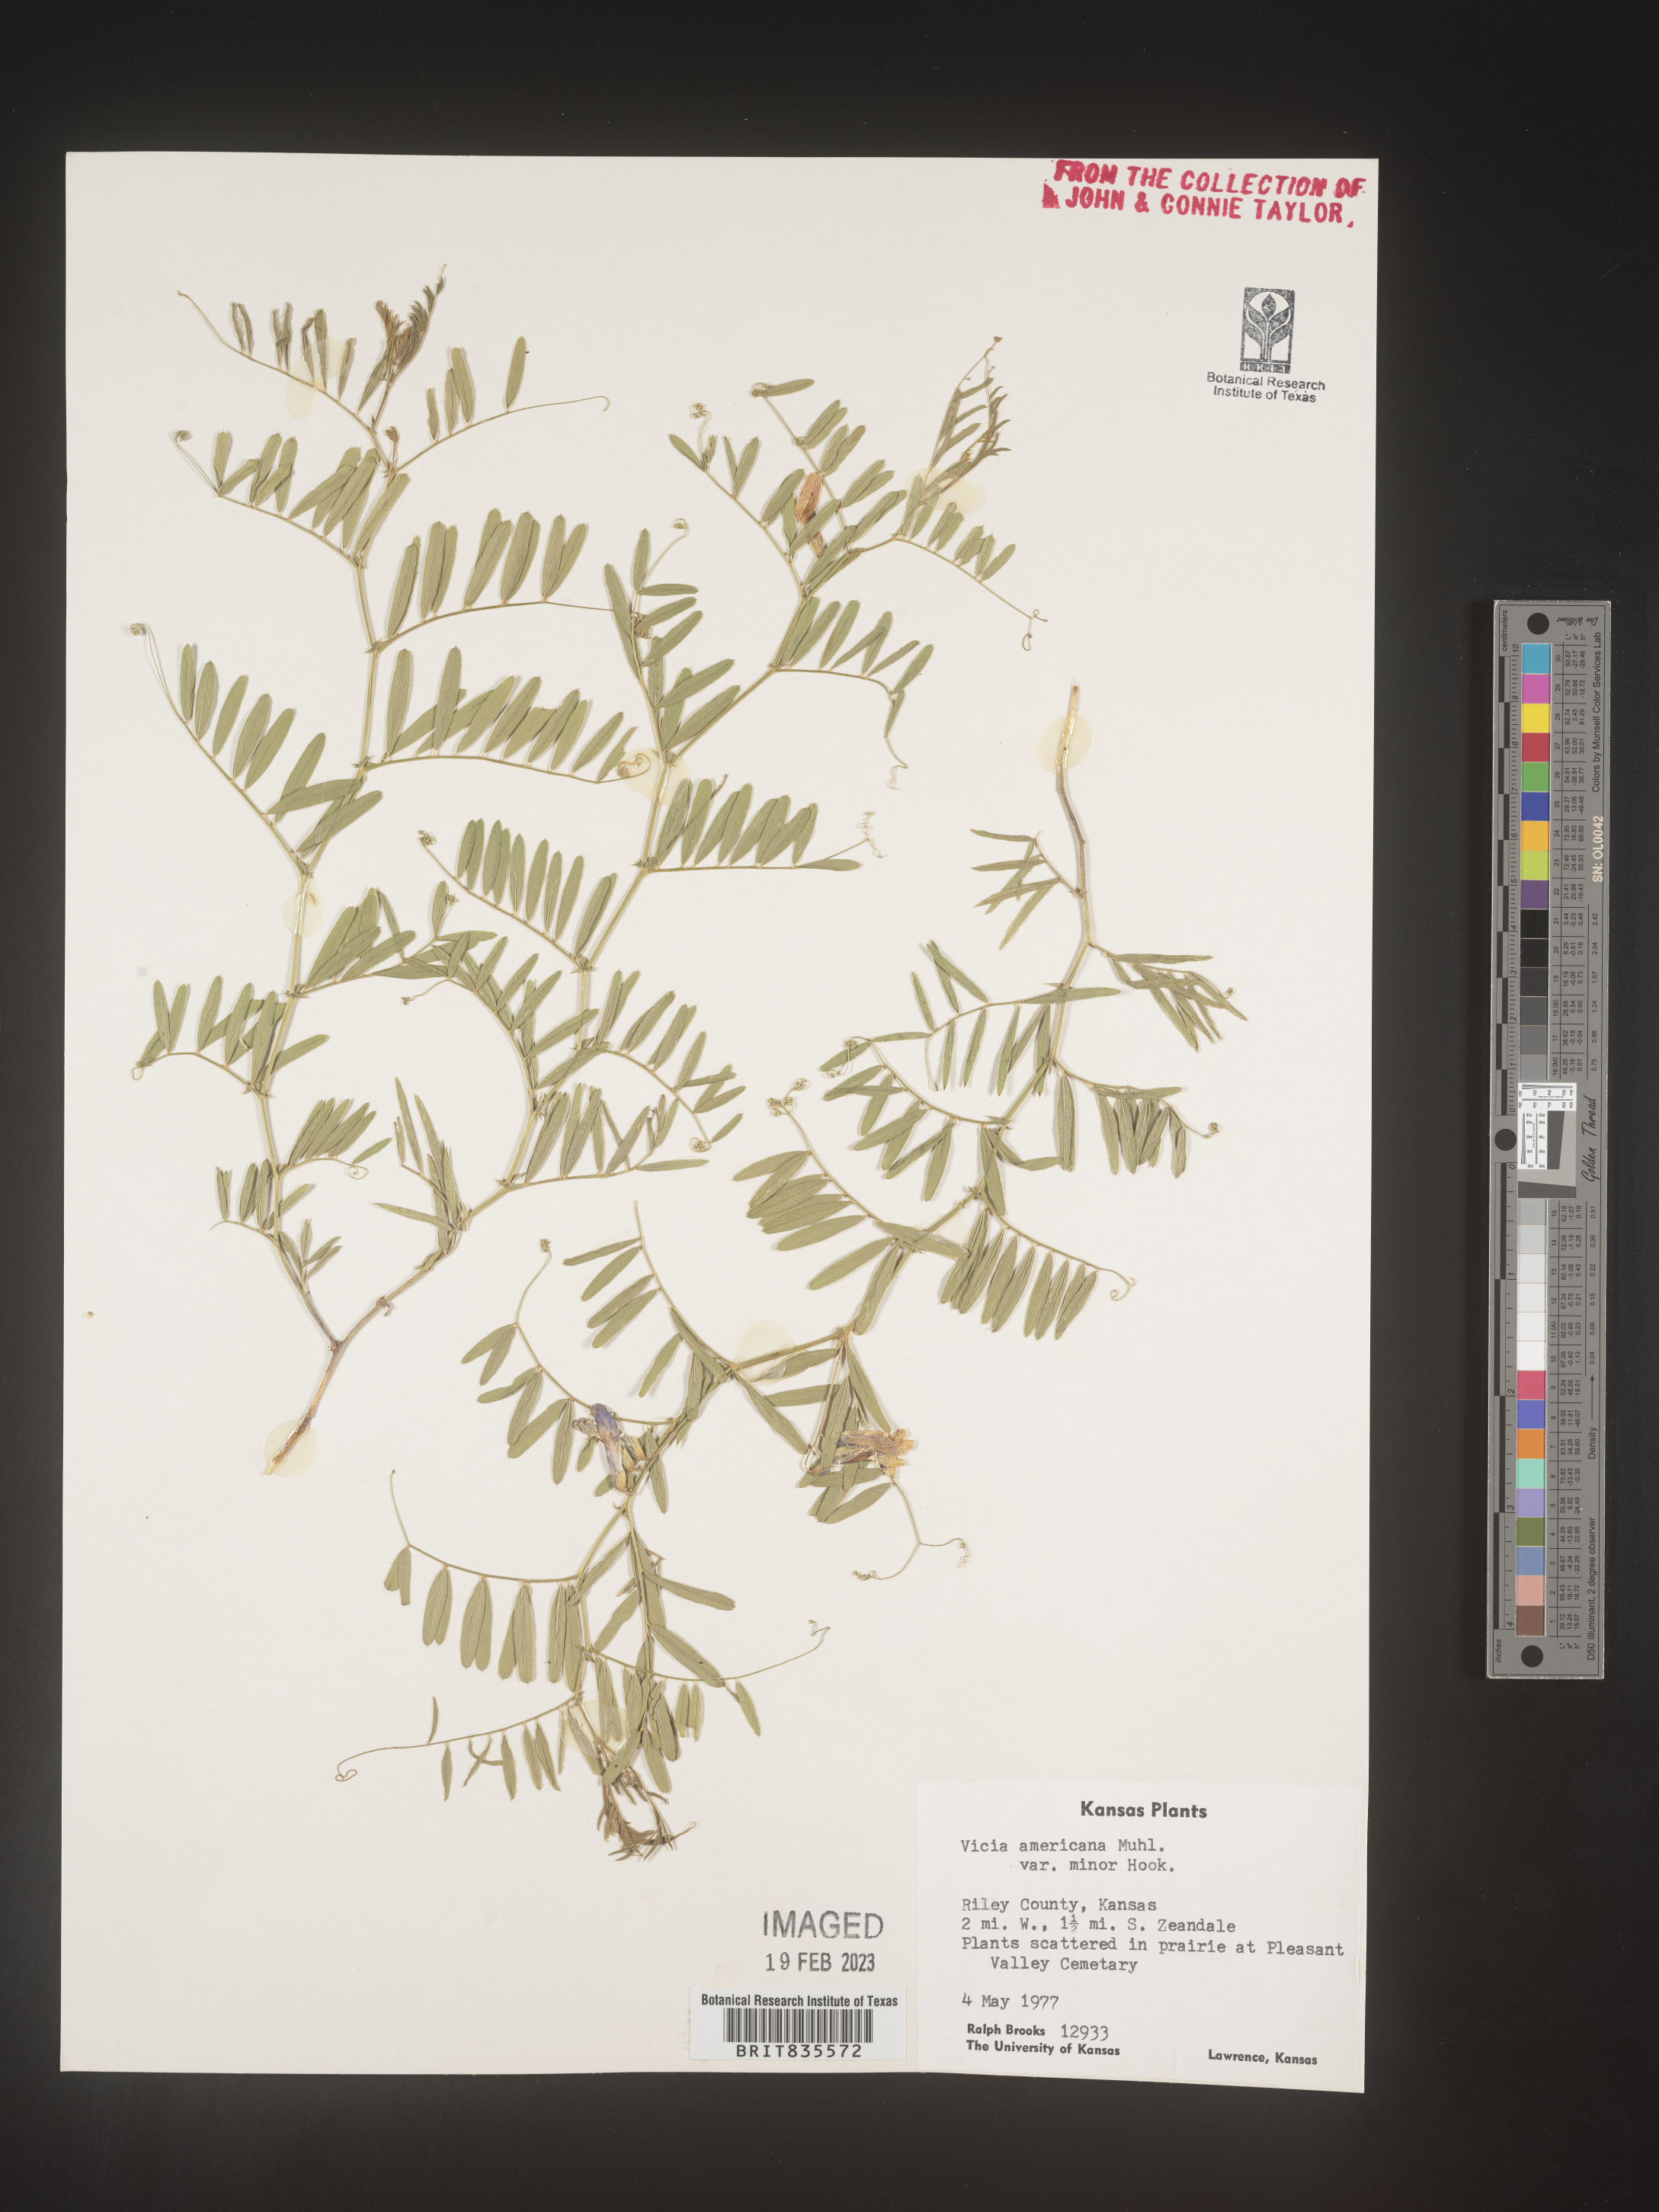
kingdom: Plantae
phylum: Tracheophyta
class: Magnoliopsida
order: Fabales
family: Fabaceae
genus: Vicia
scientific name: Vicia americana
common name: American vetch
